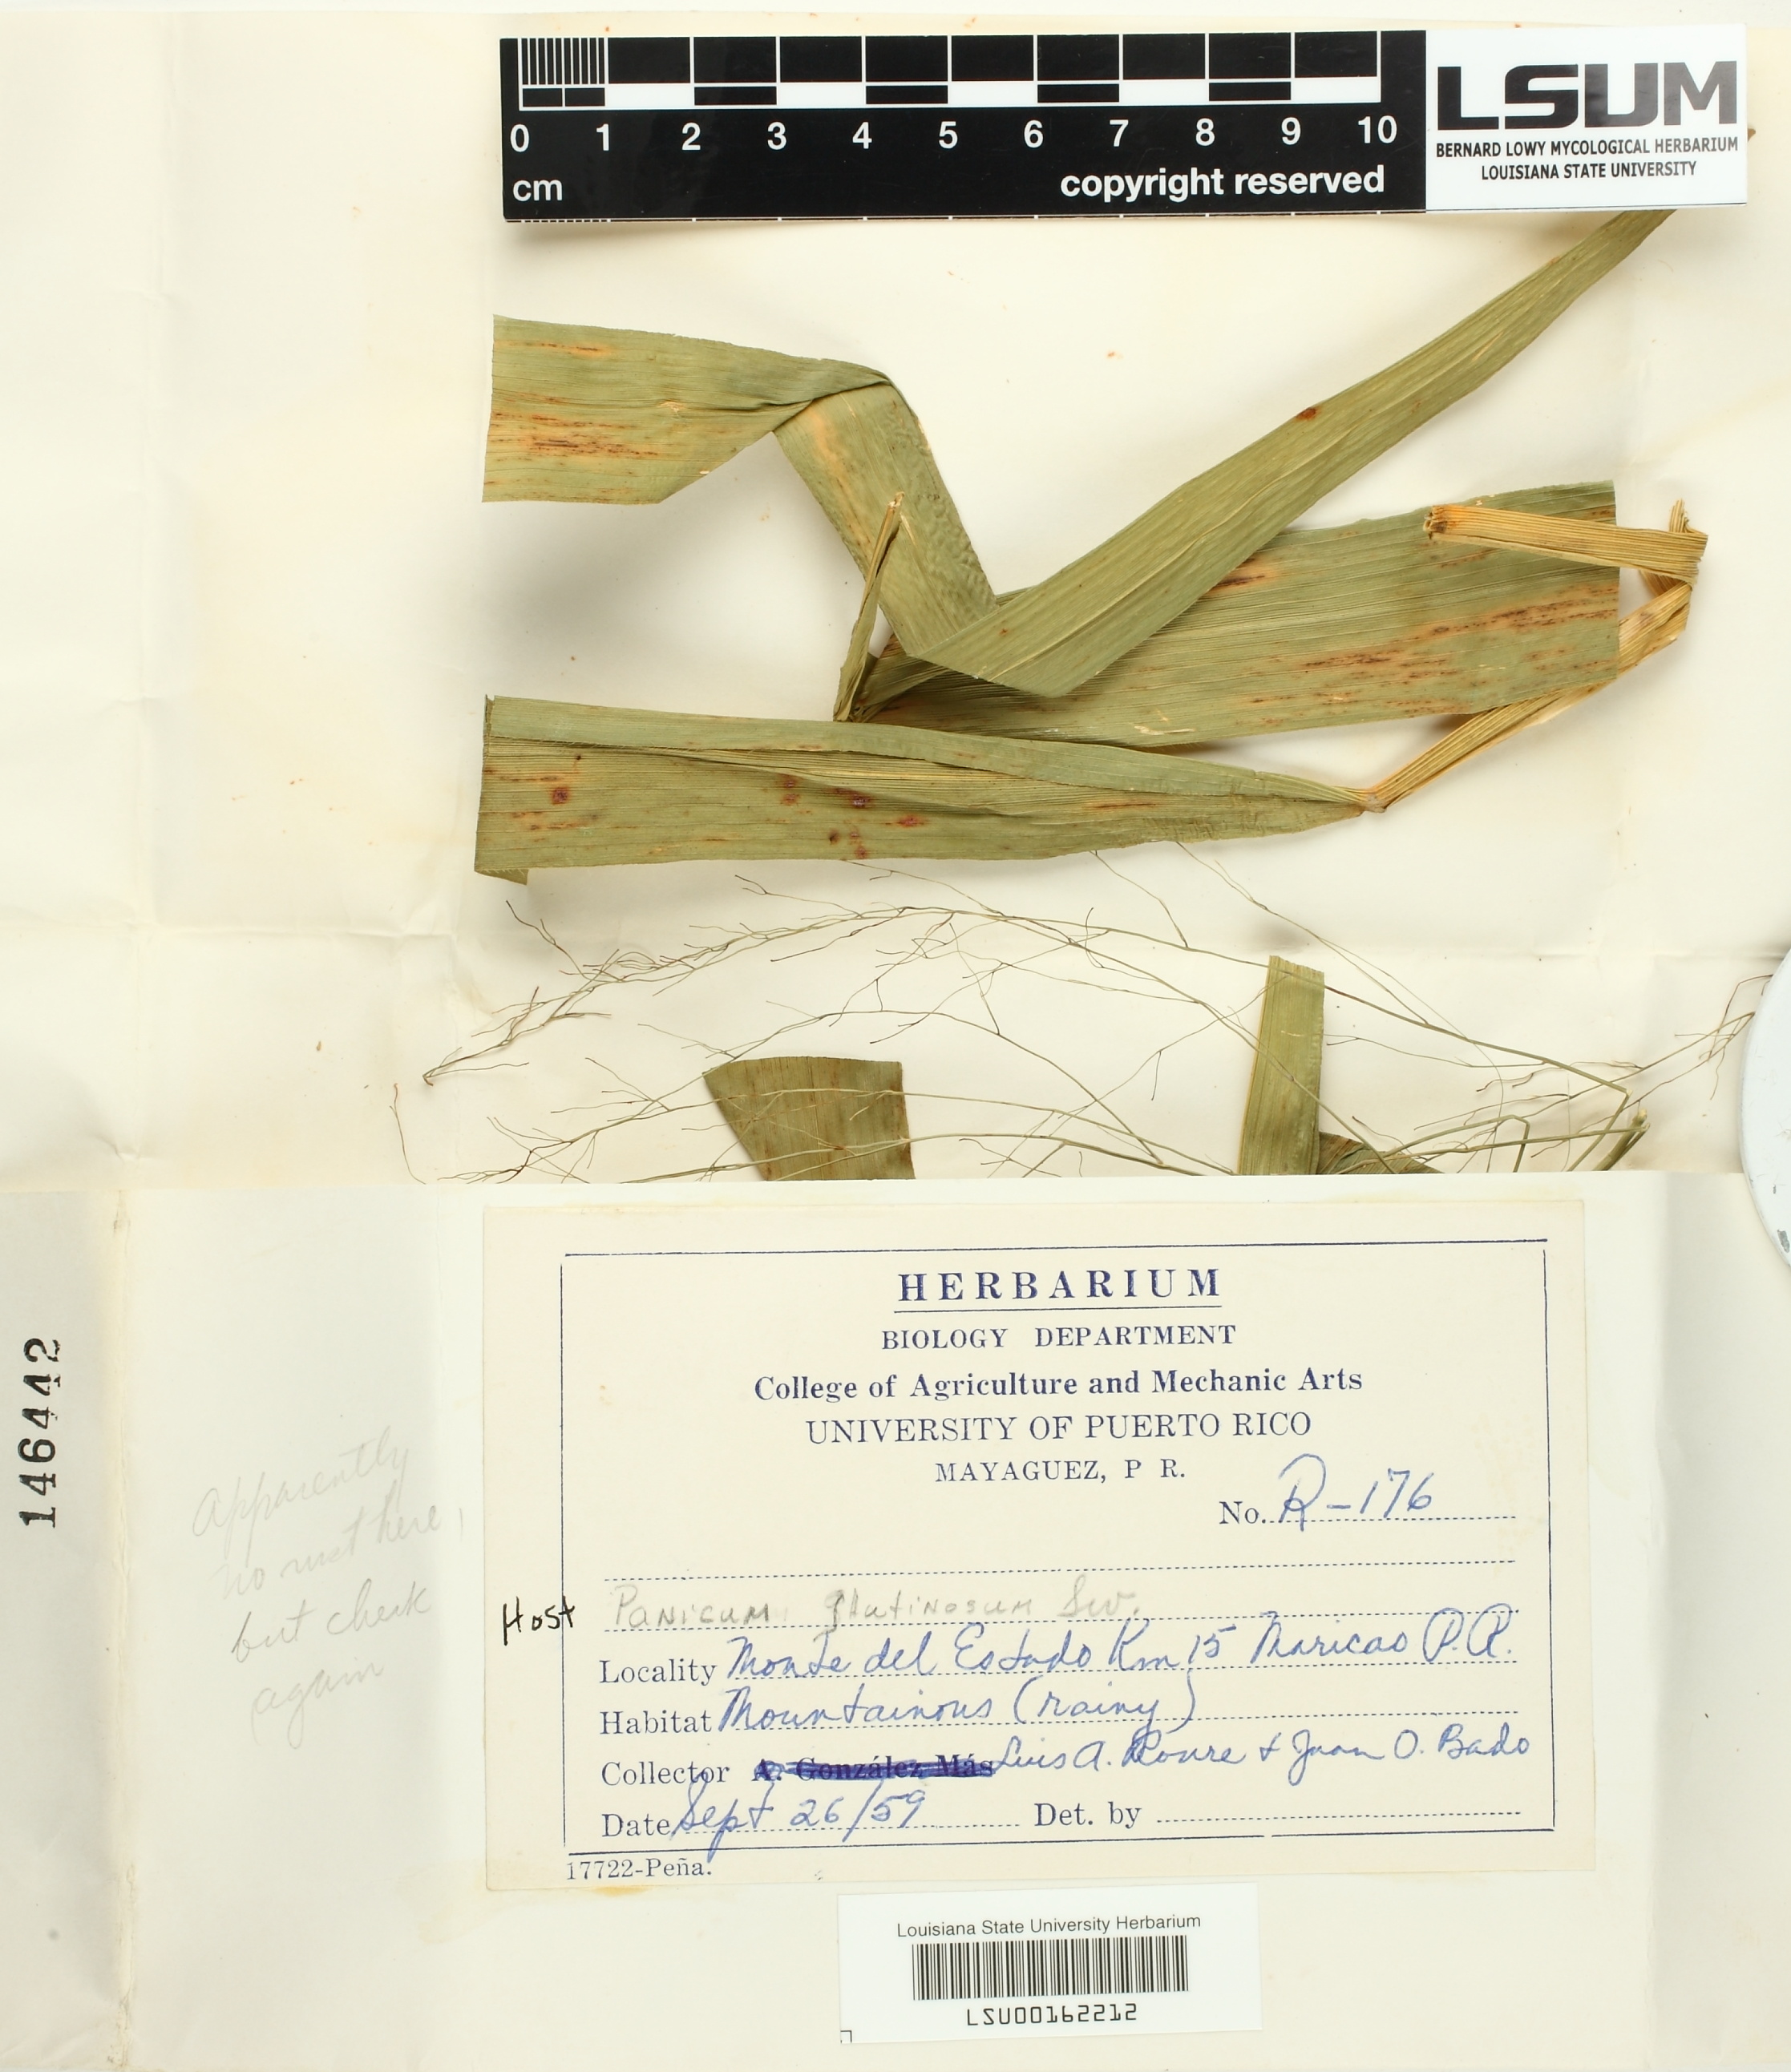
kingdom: Fungi
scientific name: Fungi
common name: Fungi
